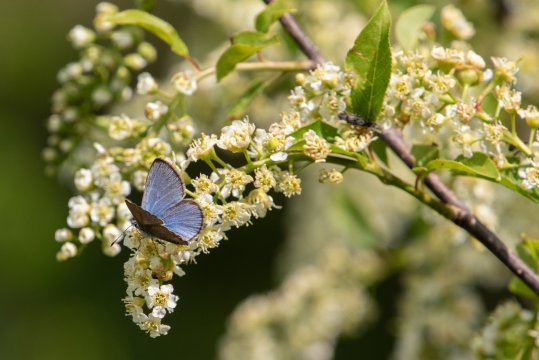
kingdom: Animalia
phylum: Arthropoda
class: Insecta
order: Lepidoptera
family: Lycaenidae
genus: Glaucopsyche
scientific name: Glaucopsyche lygdamus
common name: Silvery Blue
